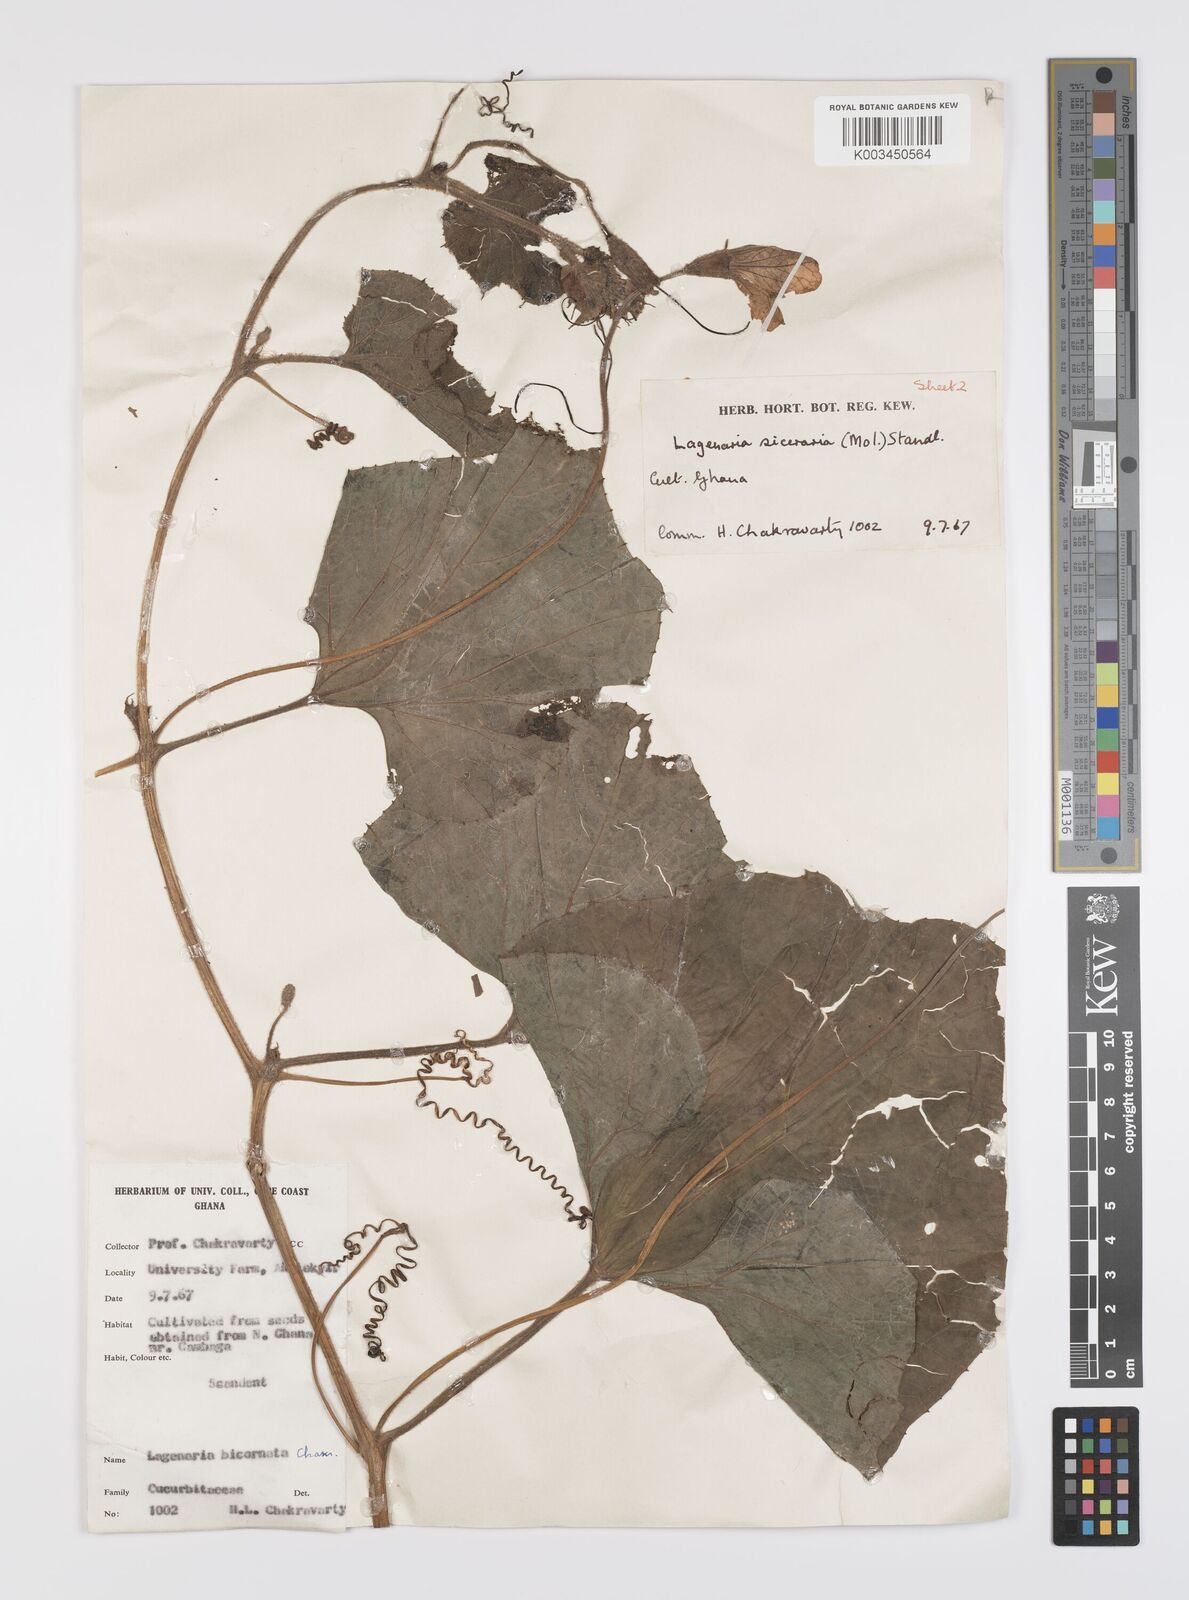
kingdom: Plantae
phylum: Tracheophyta
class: Magnoliopsida
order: Cucurbitales
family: Cucurbitaceae
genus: Lagenaria
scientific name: Lagenaria siceraria
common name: Bottle gourd
